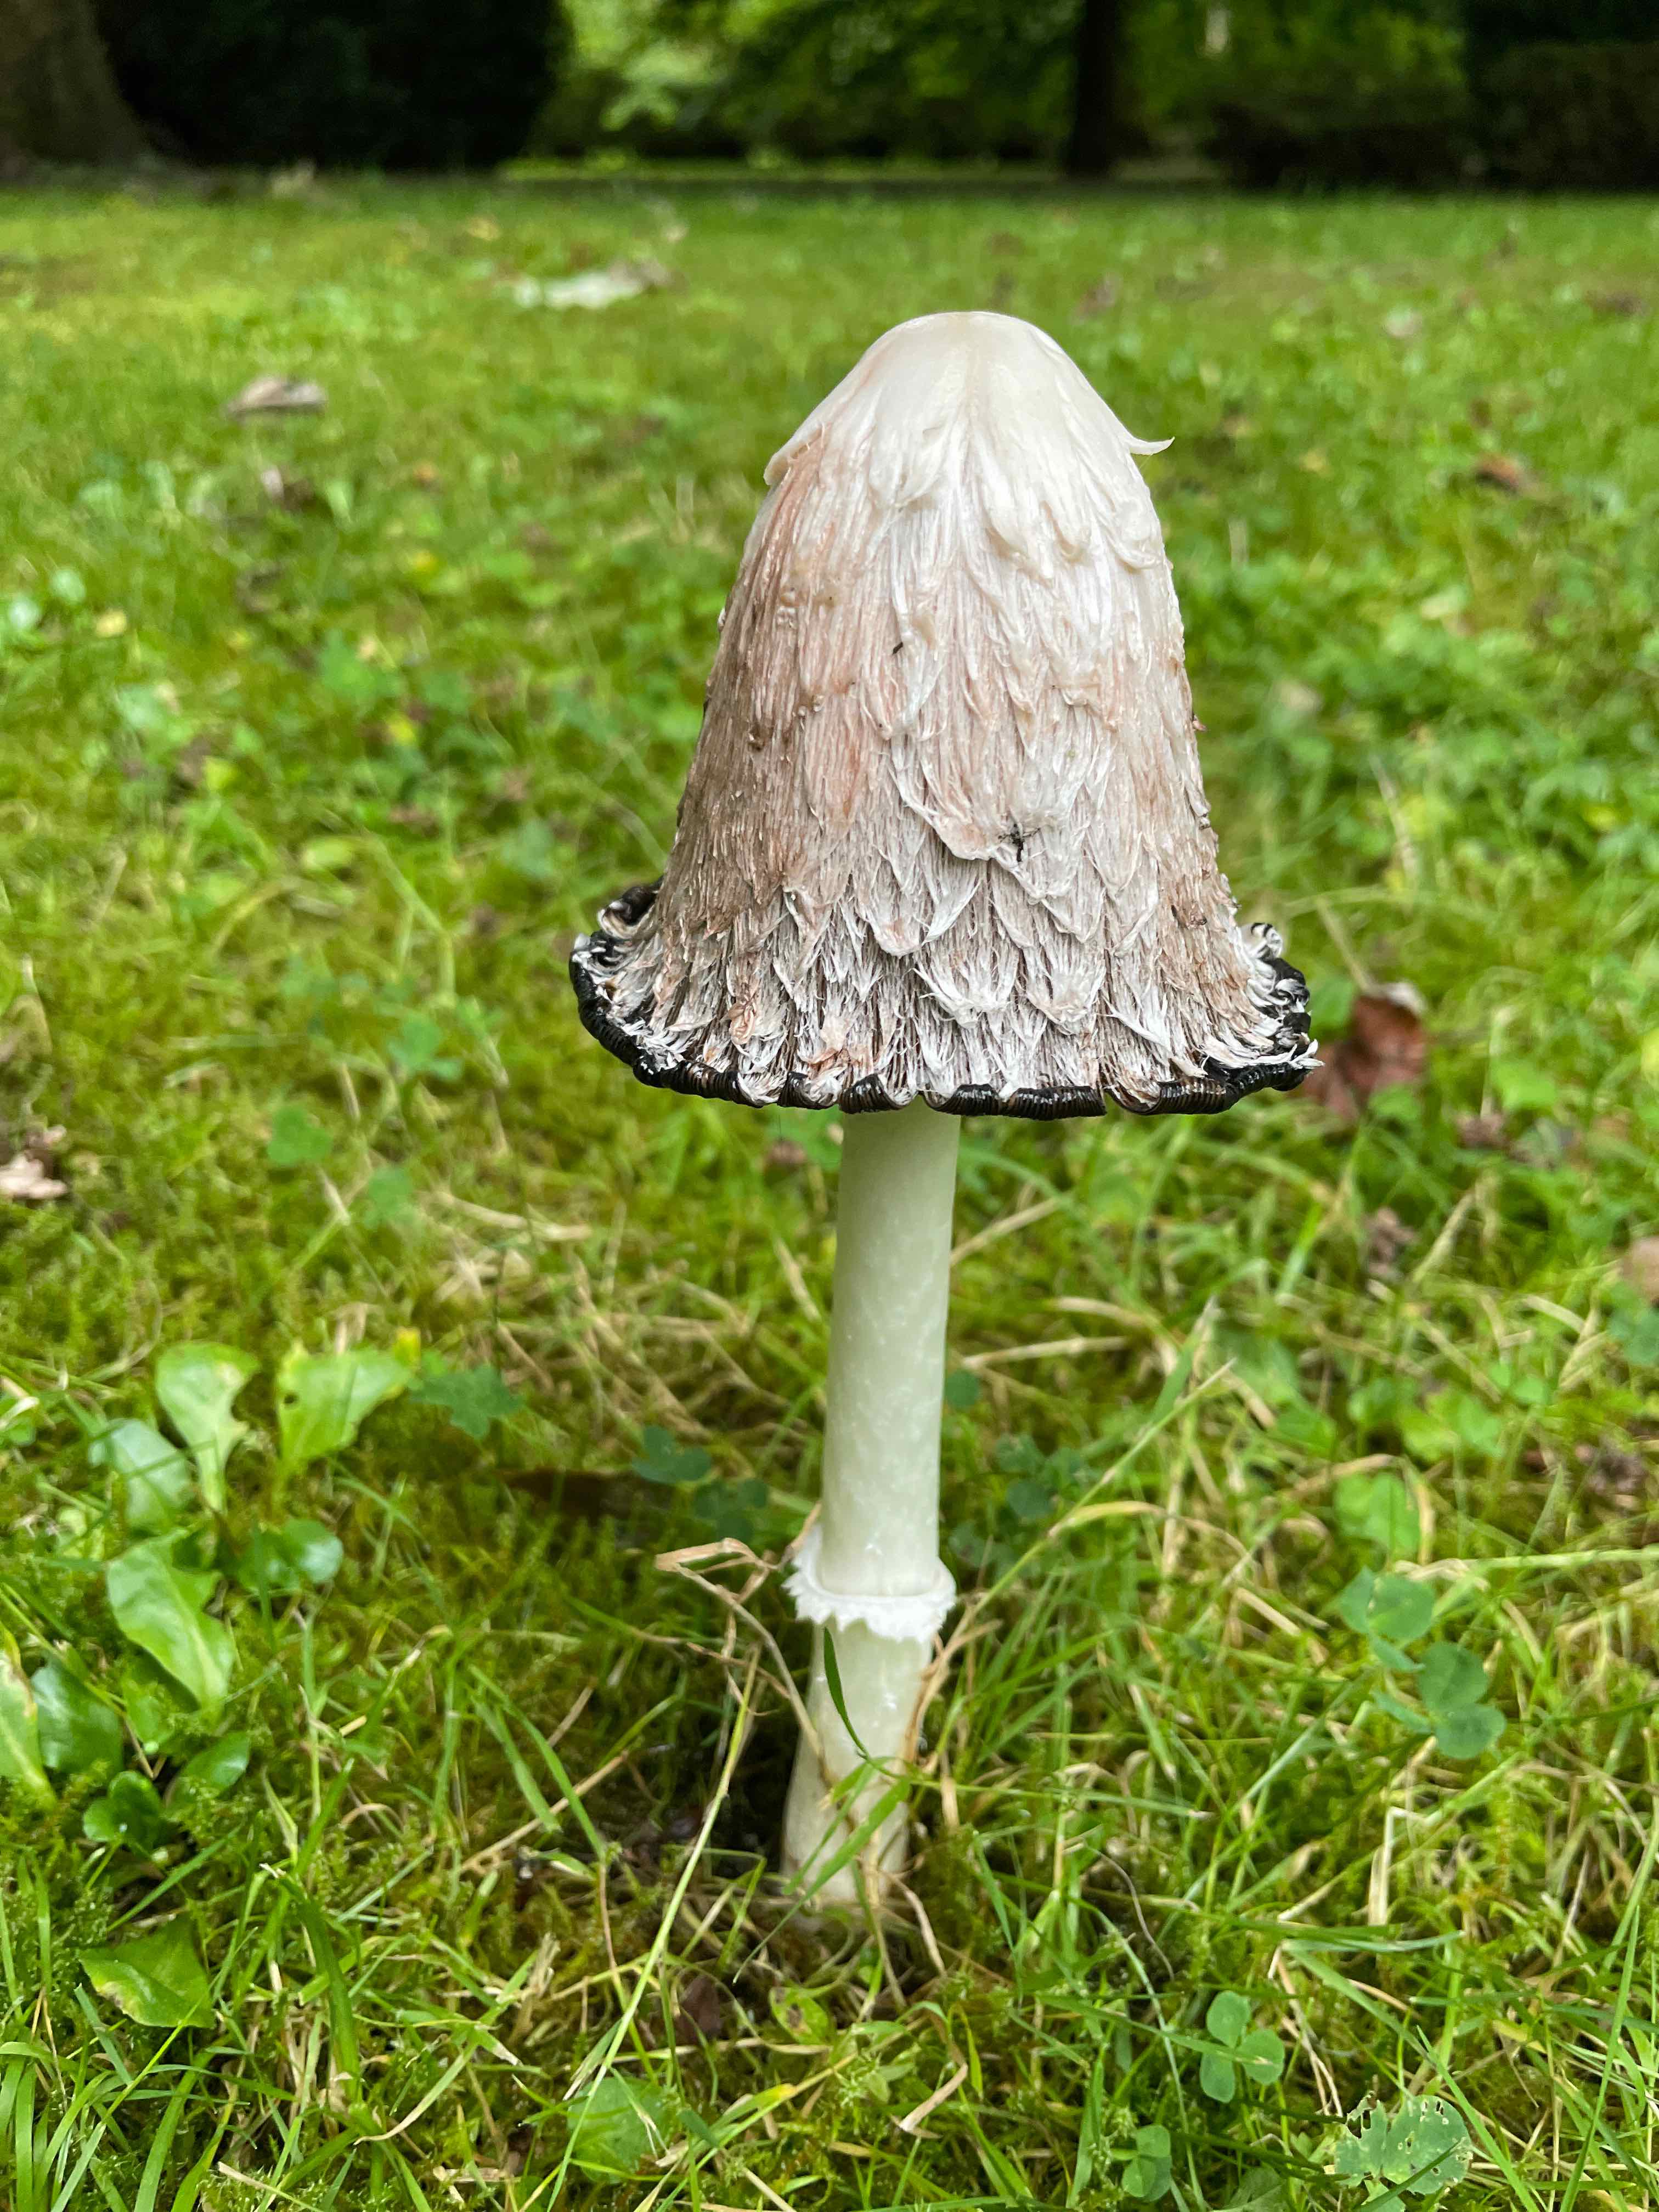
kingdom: Fungi
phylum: Basidiomycota
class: Agaricomycetes
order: Agaricales
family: Agaricaceae
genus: Coprinus
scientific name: Coprinus comatus
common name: stor parykhat
